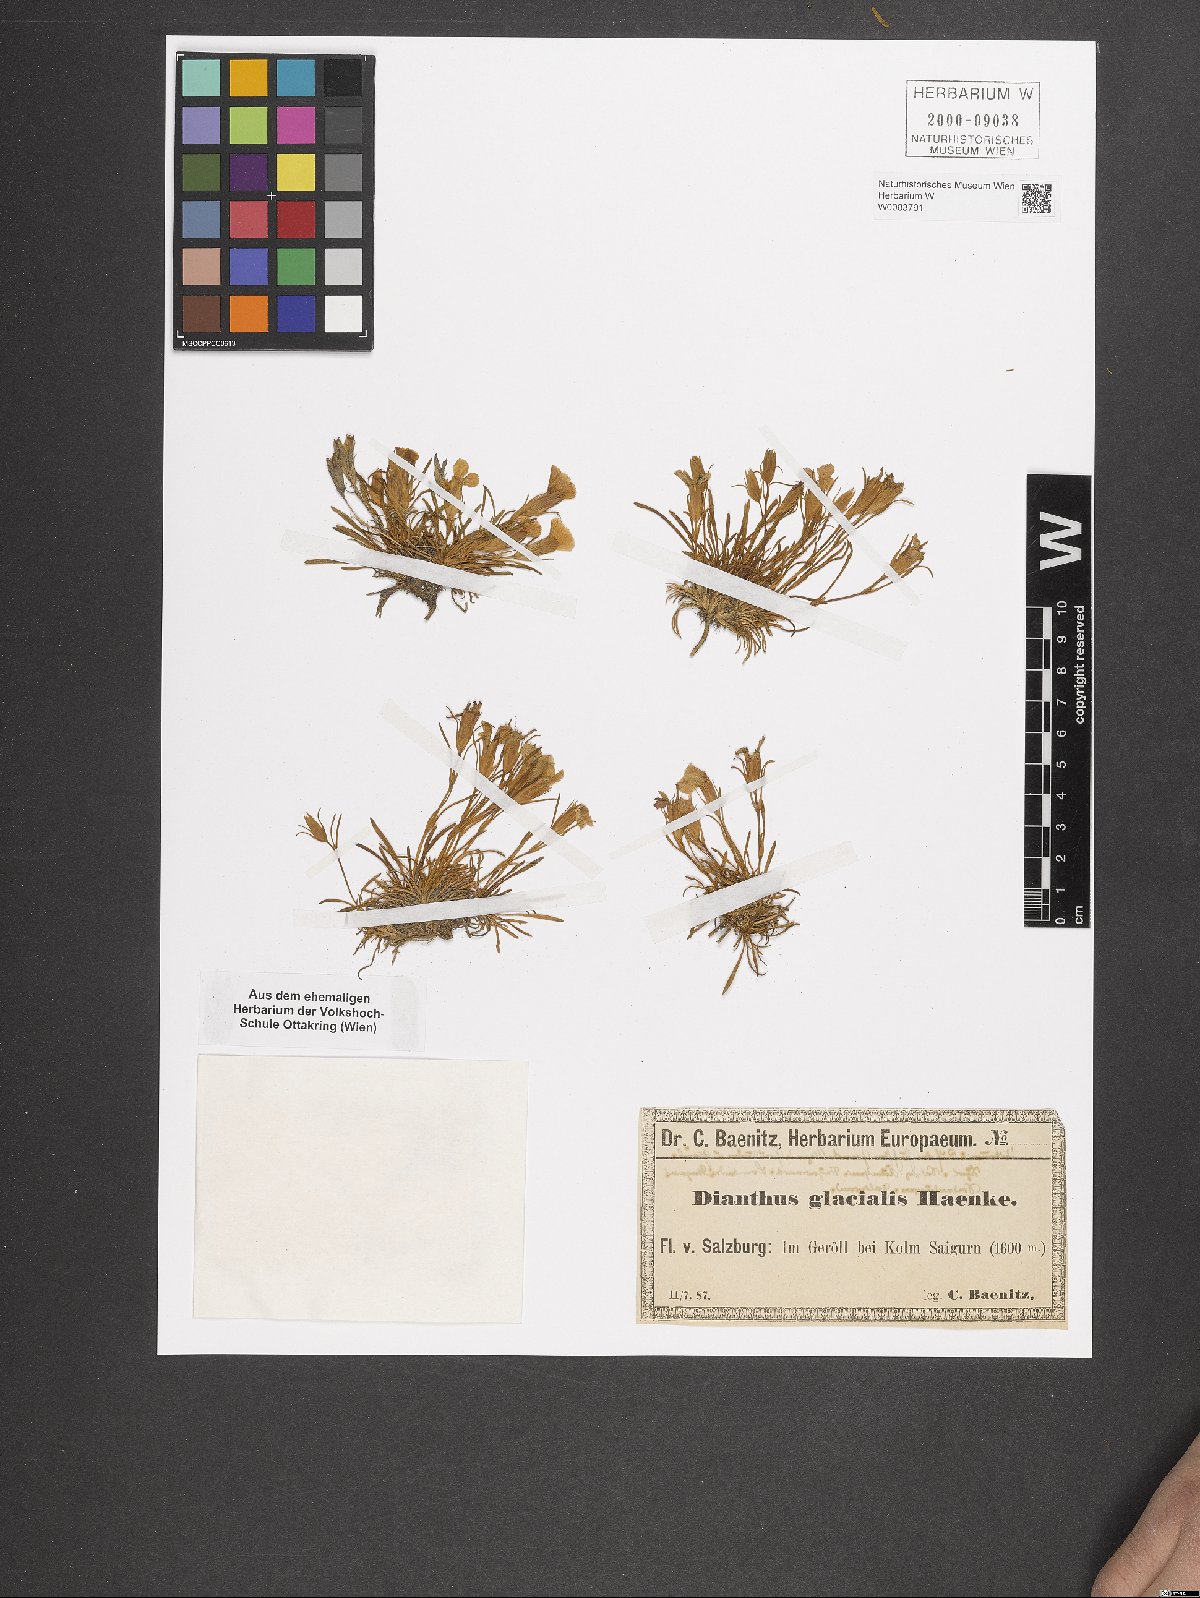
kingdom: Plantae
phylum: Tracheophyta
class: Magnoliopsida
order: Caryophyllales
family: Caryophyllaceae
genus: Dianthus
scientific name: Dianthus glacialis
